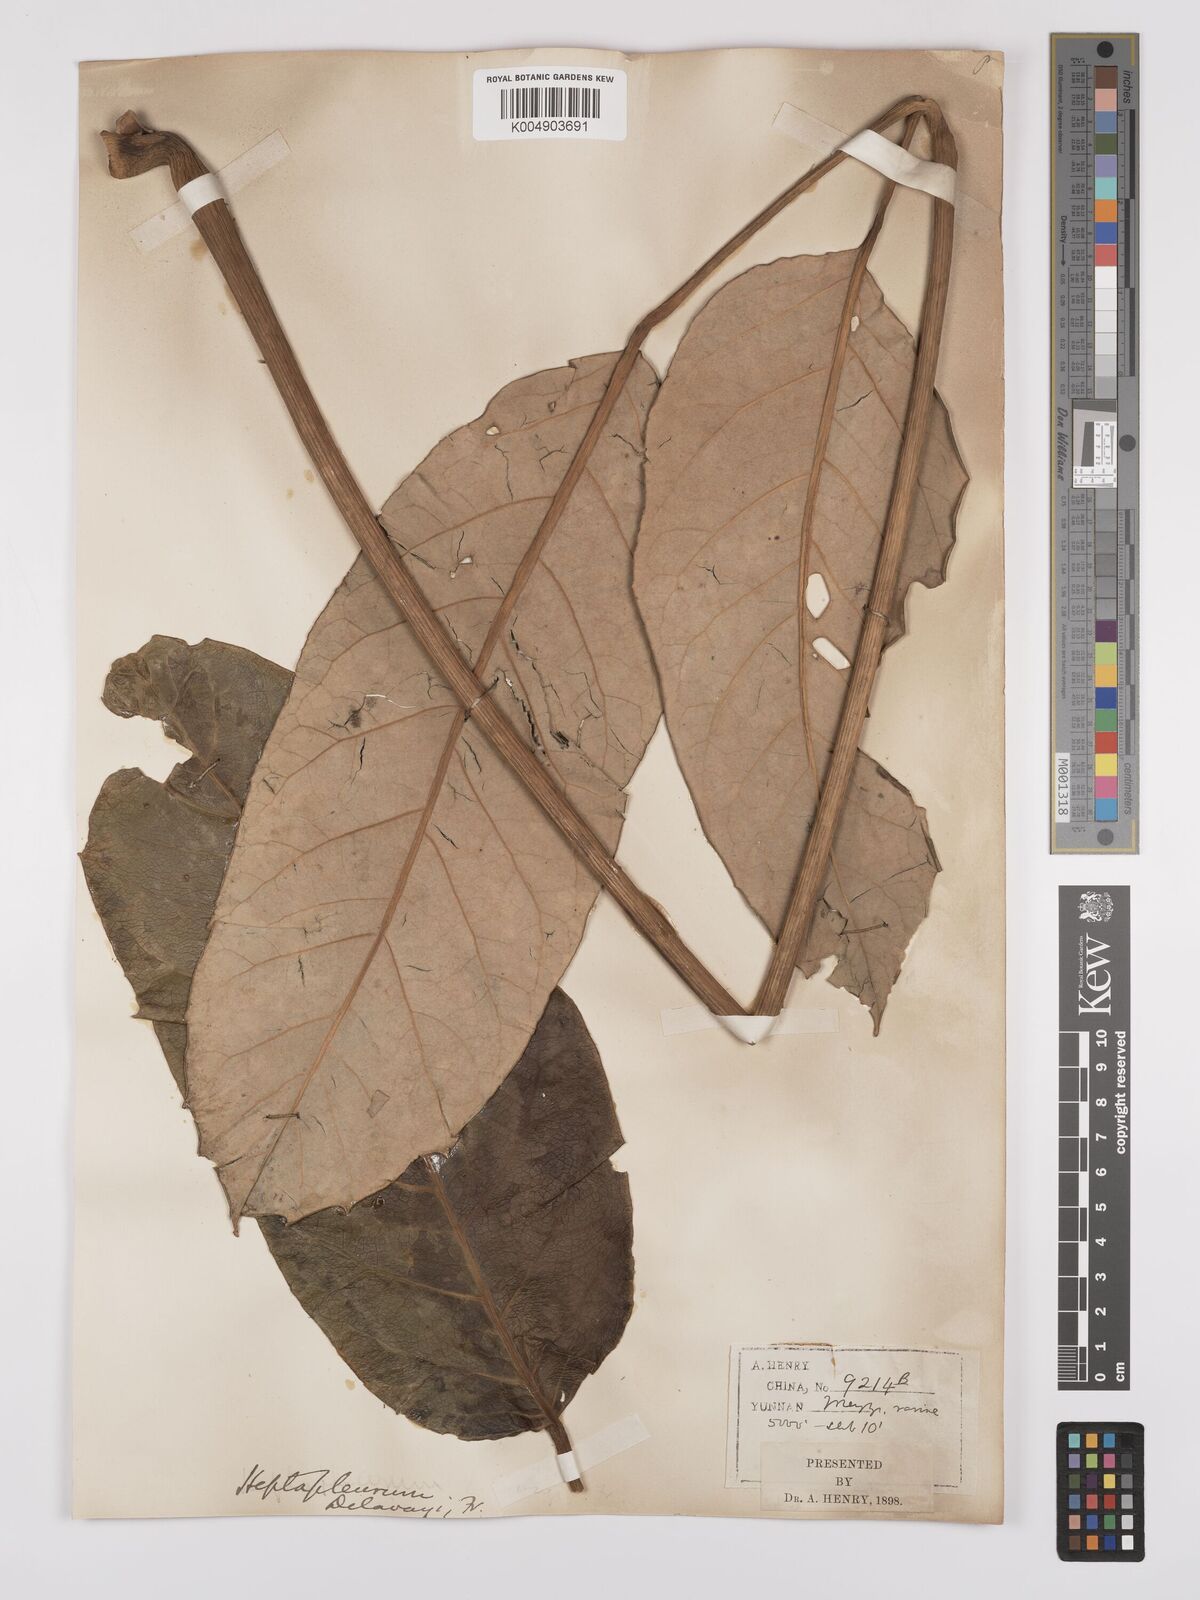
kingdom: Plantae
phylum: Tracheophyta
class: Magnoliopsida
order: Apiales
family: Araliaceae
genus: Heptapleurum
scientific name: Heptapleurum delavayi
